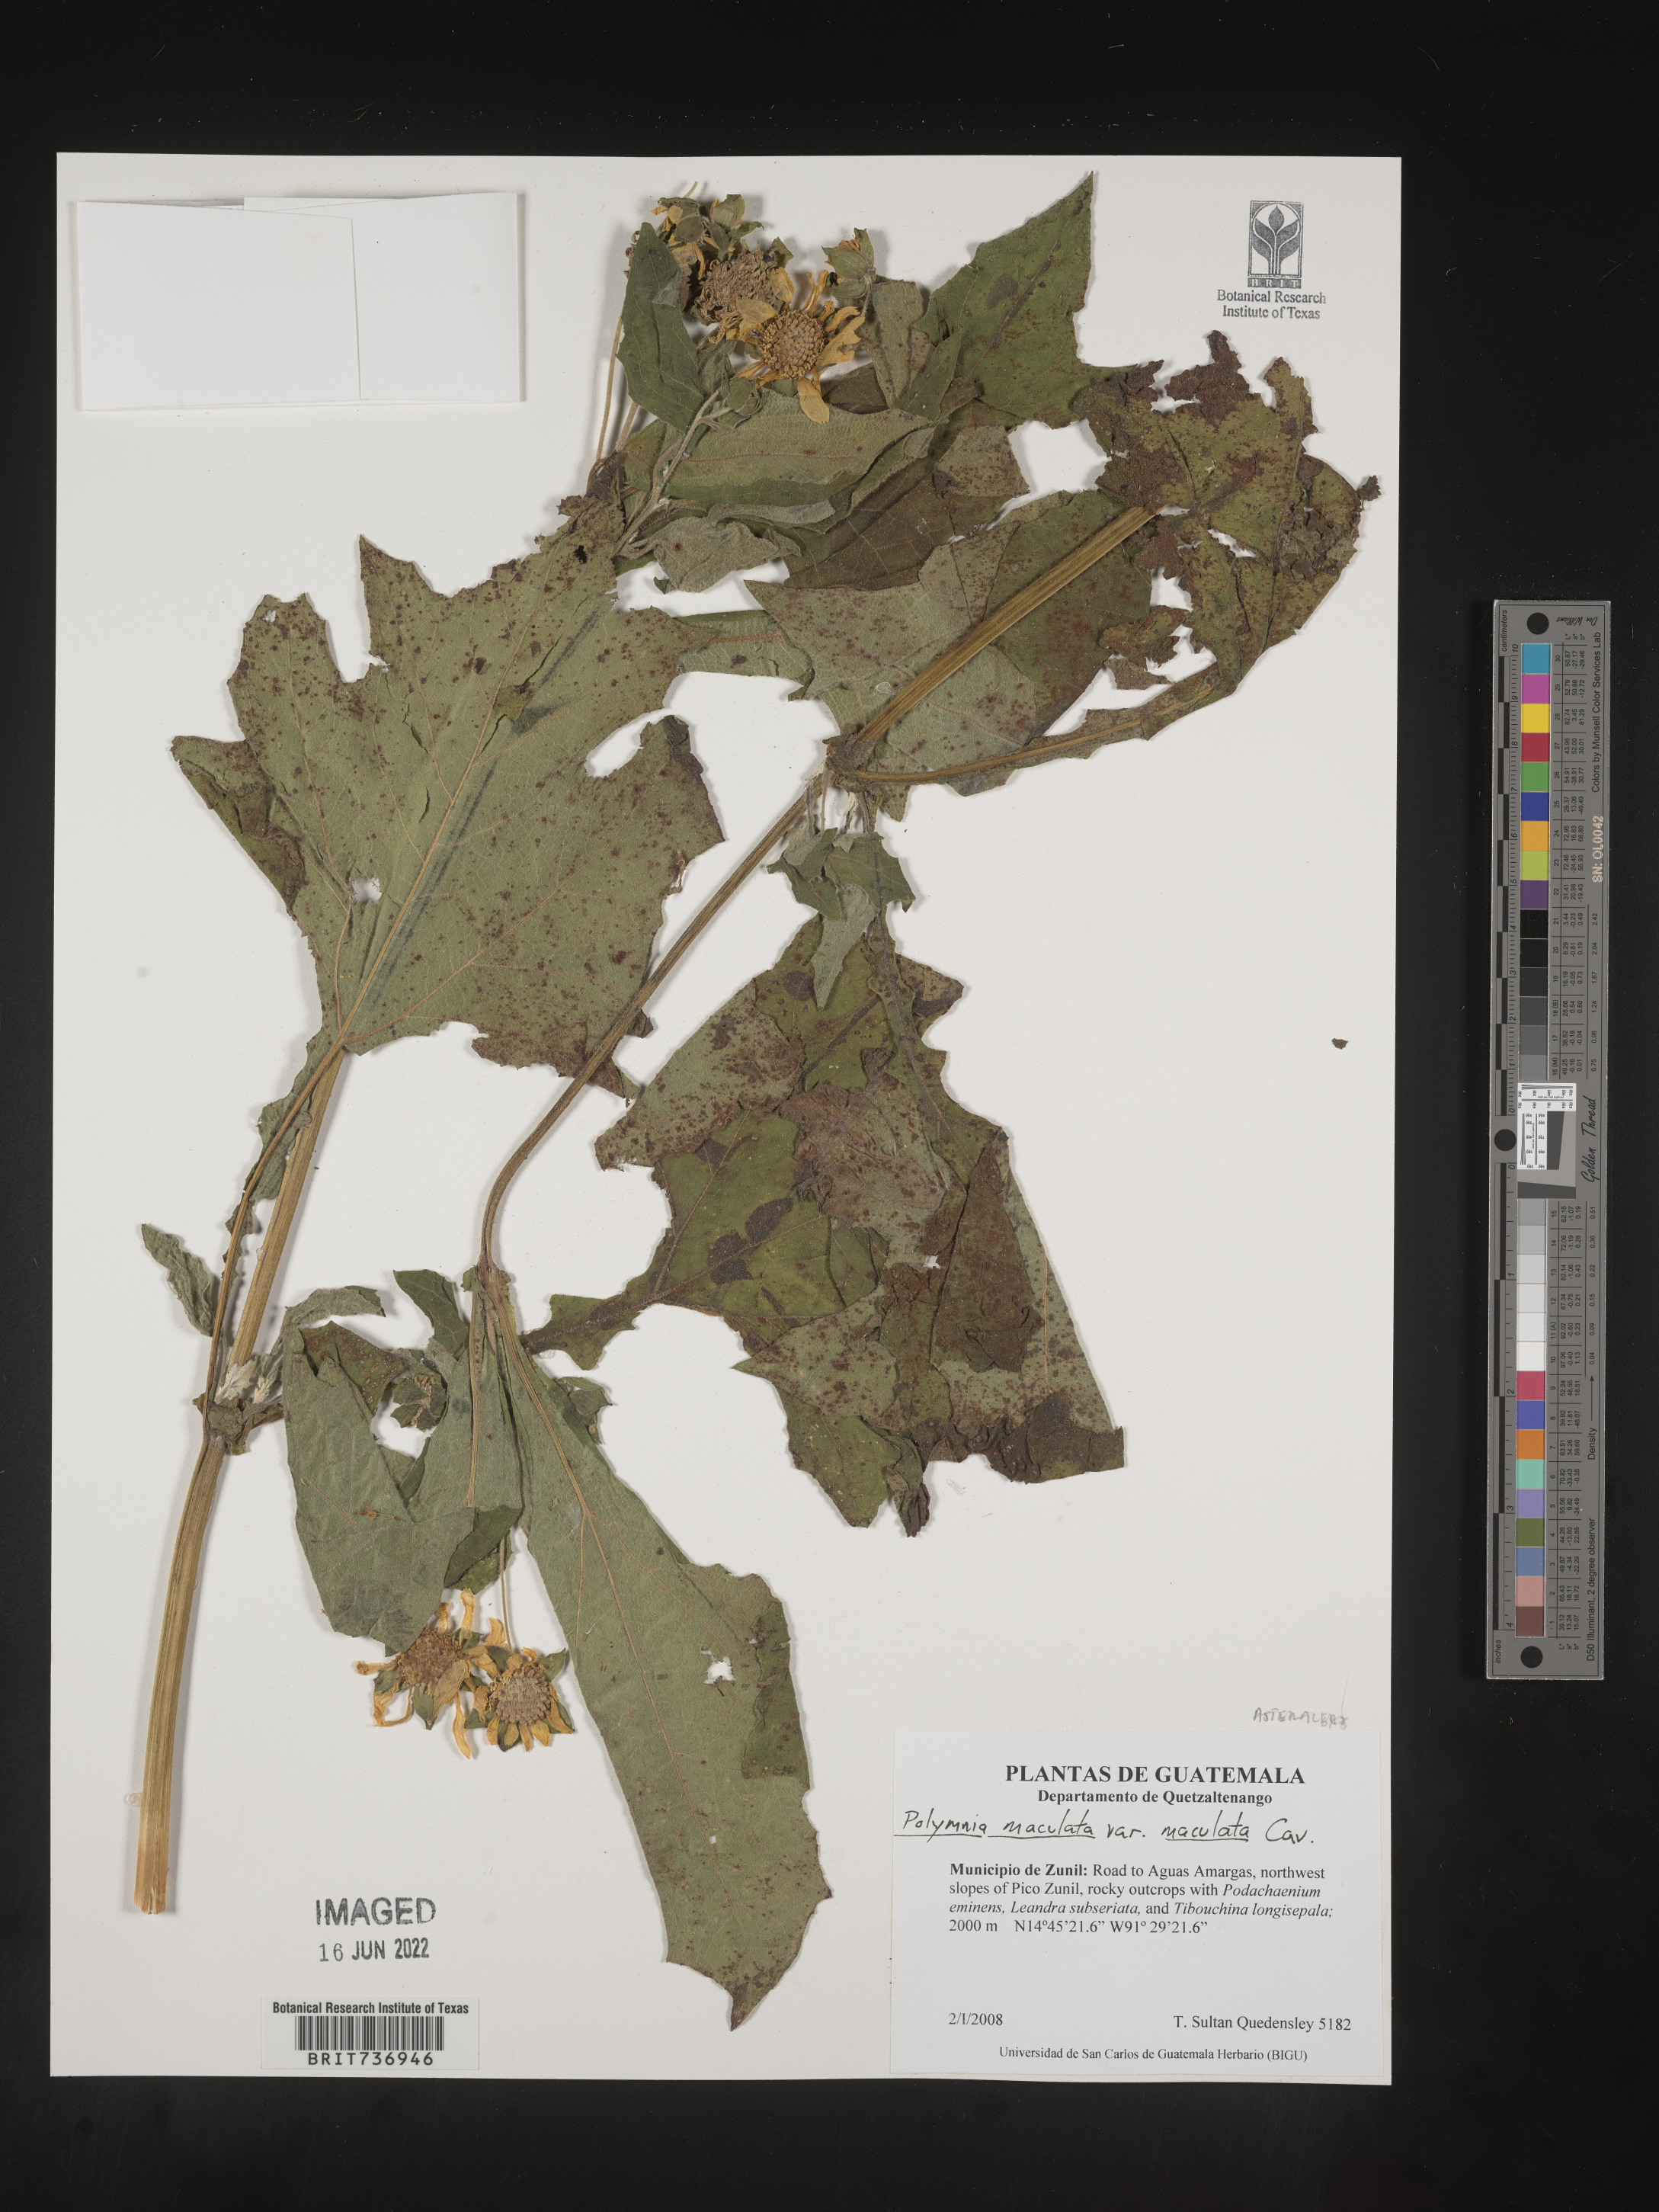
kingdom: Plantae
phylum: Tracheophyta
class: Magnoliopsida
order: Asterales
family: Asteraceae
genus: Polymnia
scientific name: Polymnia
